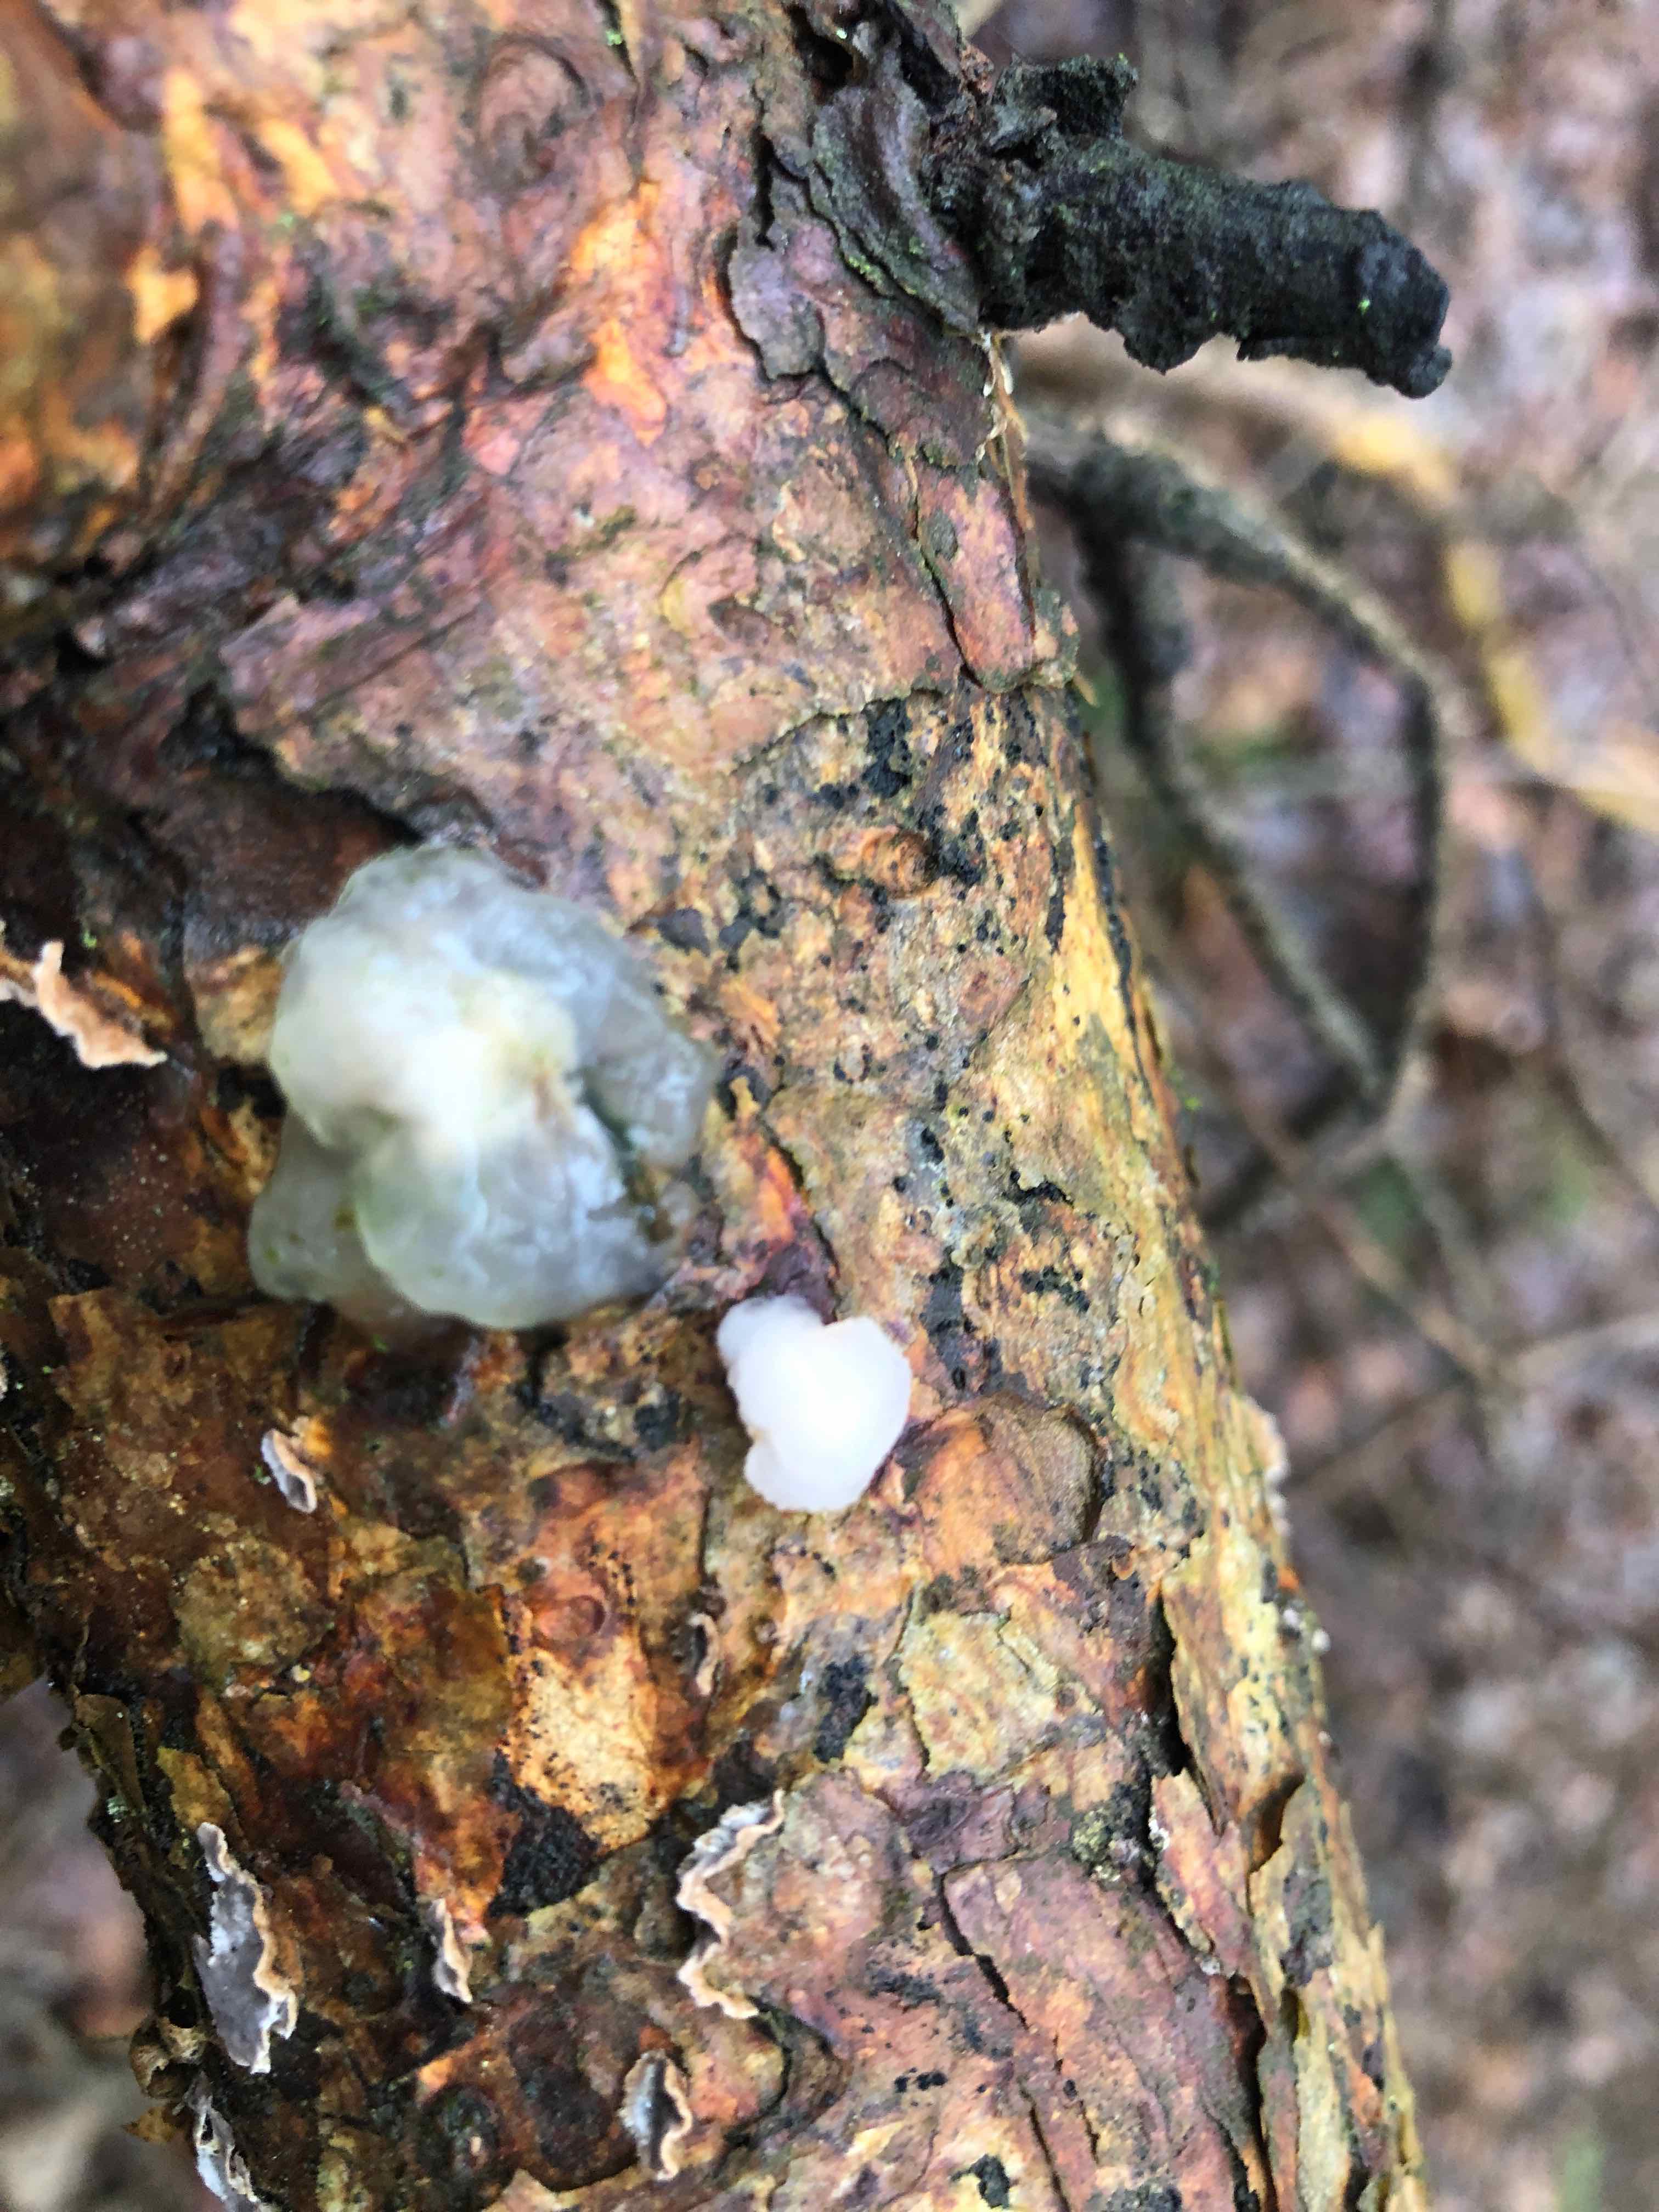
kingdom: Fungi
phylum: Basidiomycota
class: Tremellomycetes
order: Tremellales
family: Naemateliaceae
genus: Naematelia
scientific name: Naematelia encephala
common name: fyrre-bævresvamp
